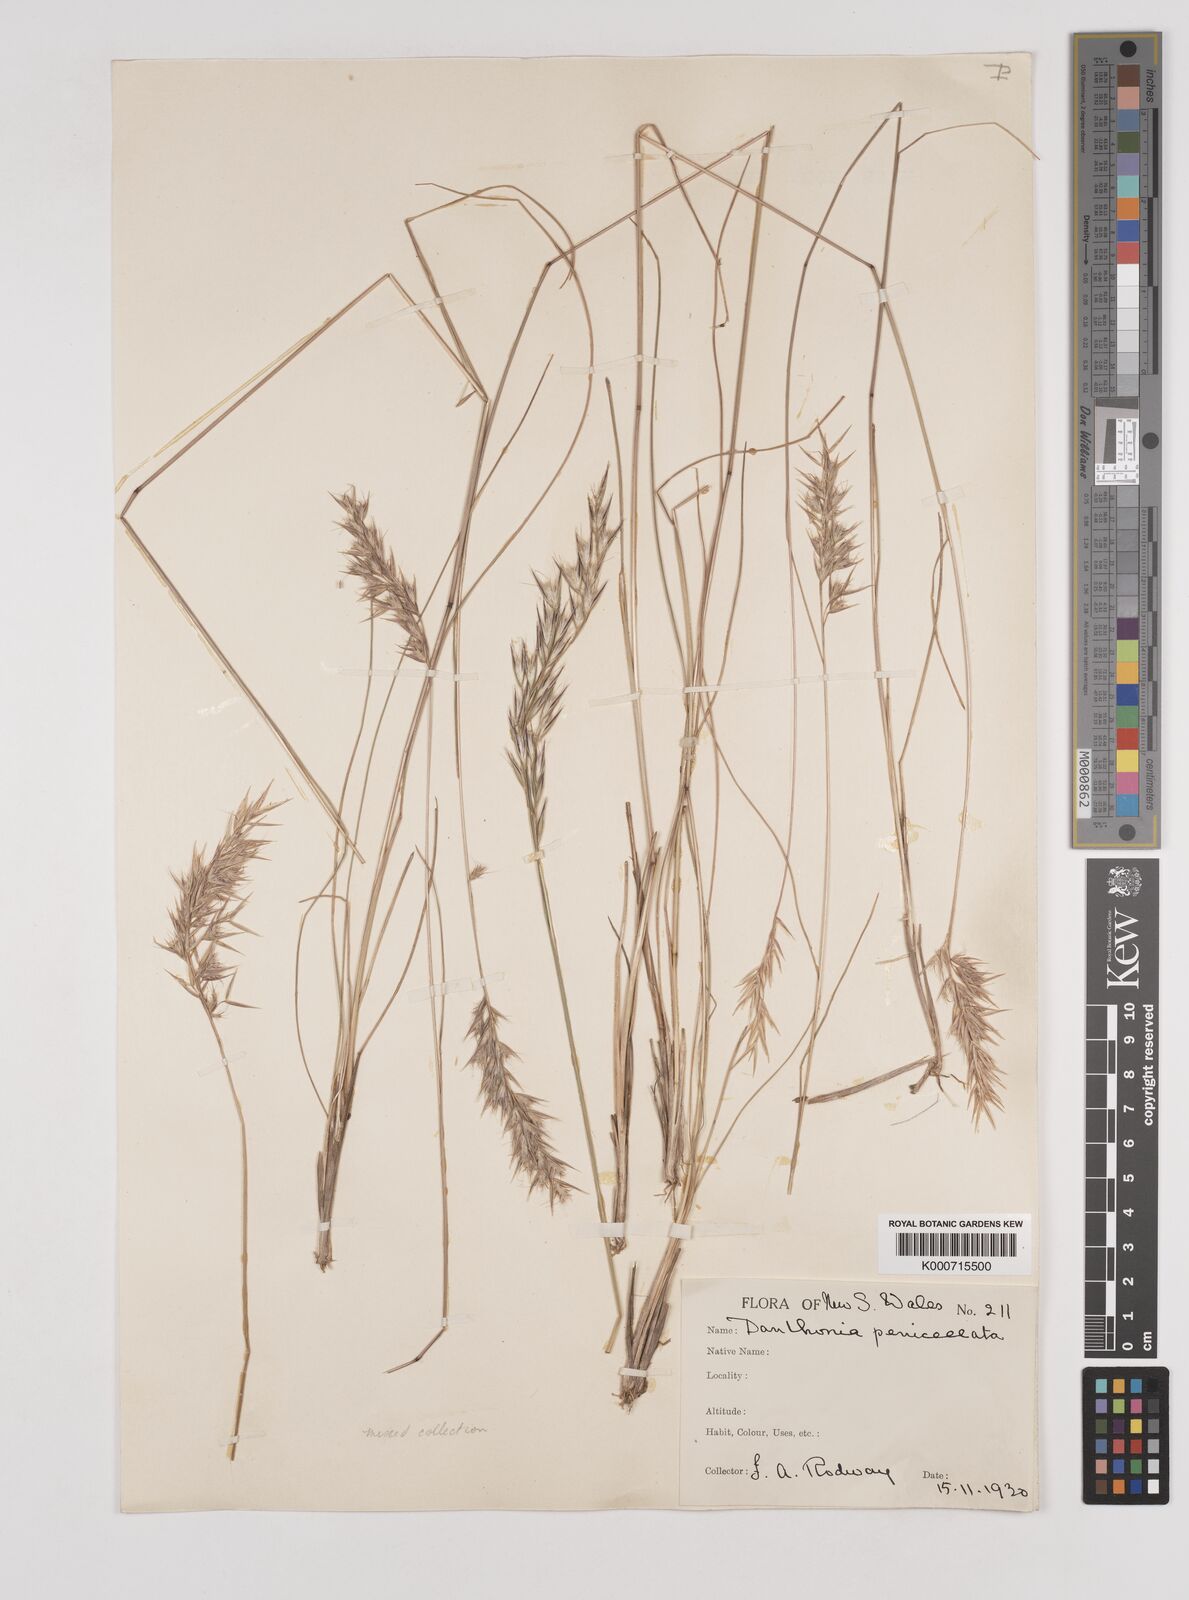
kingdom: Plantae
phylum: Tracheophyta
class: Liliopsida
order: Poales
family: Poaceae
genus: Rytidosperma
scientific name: Rytidosperma tenuius
